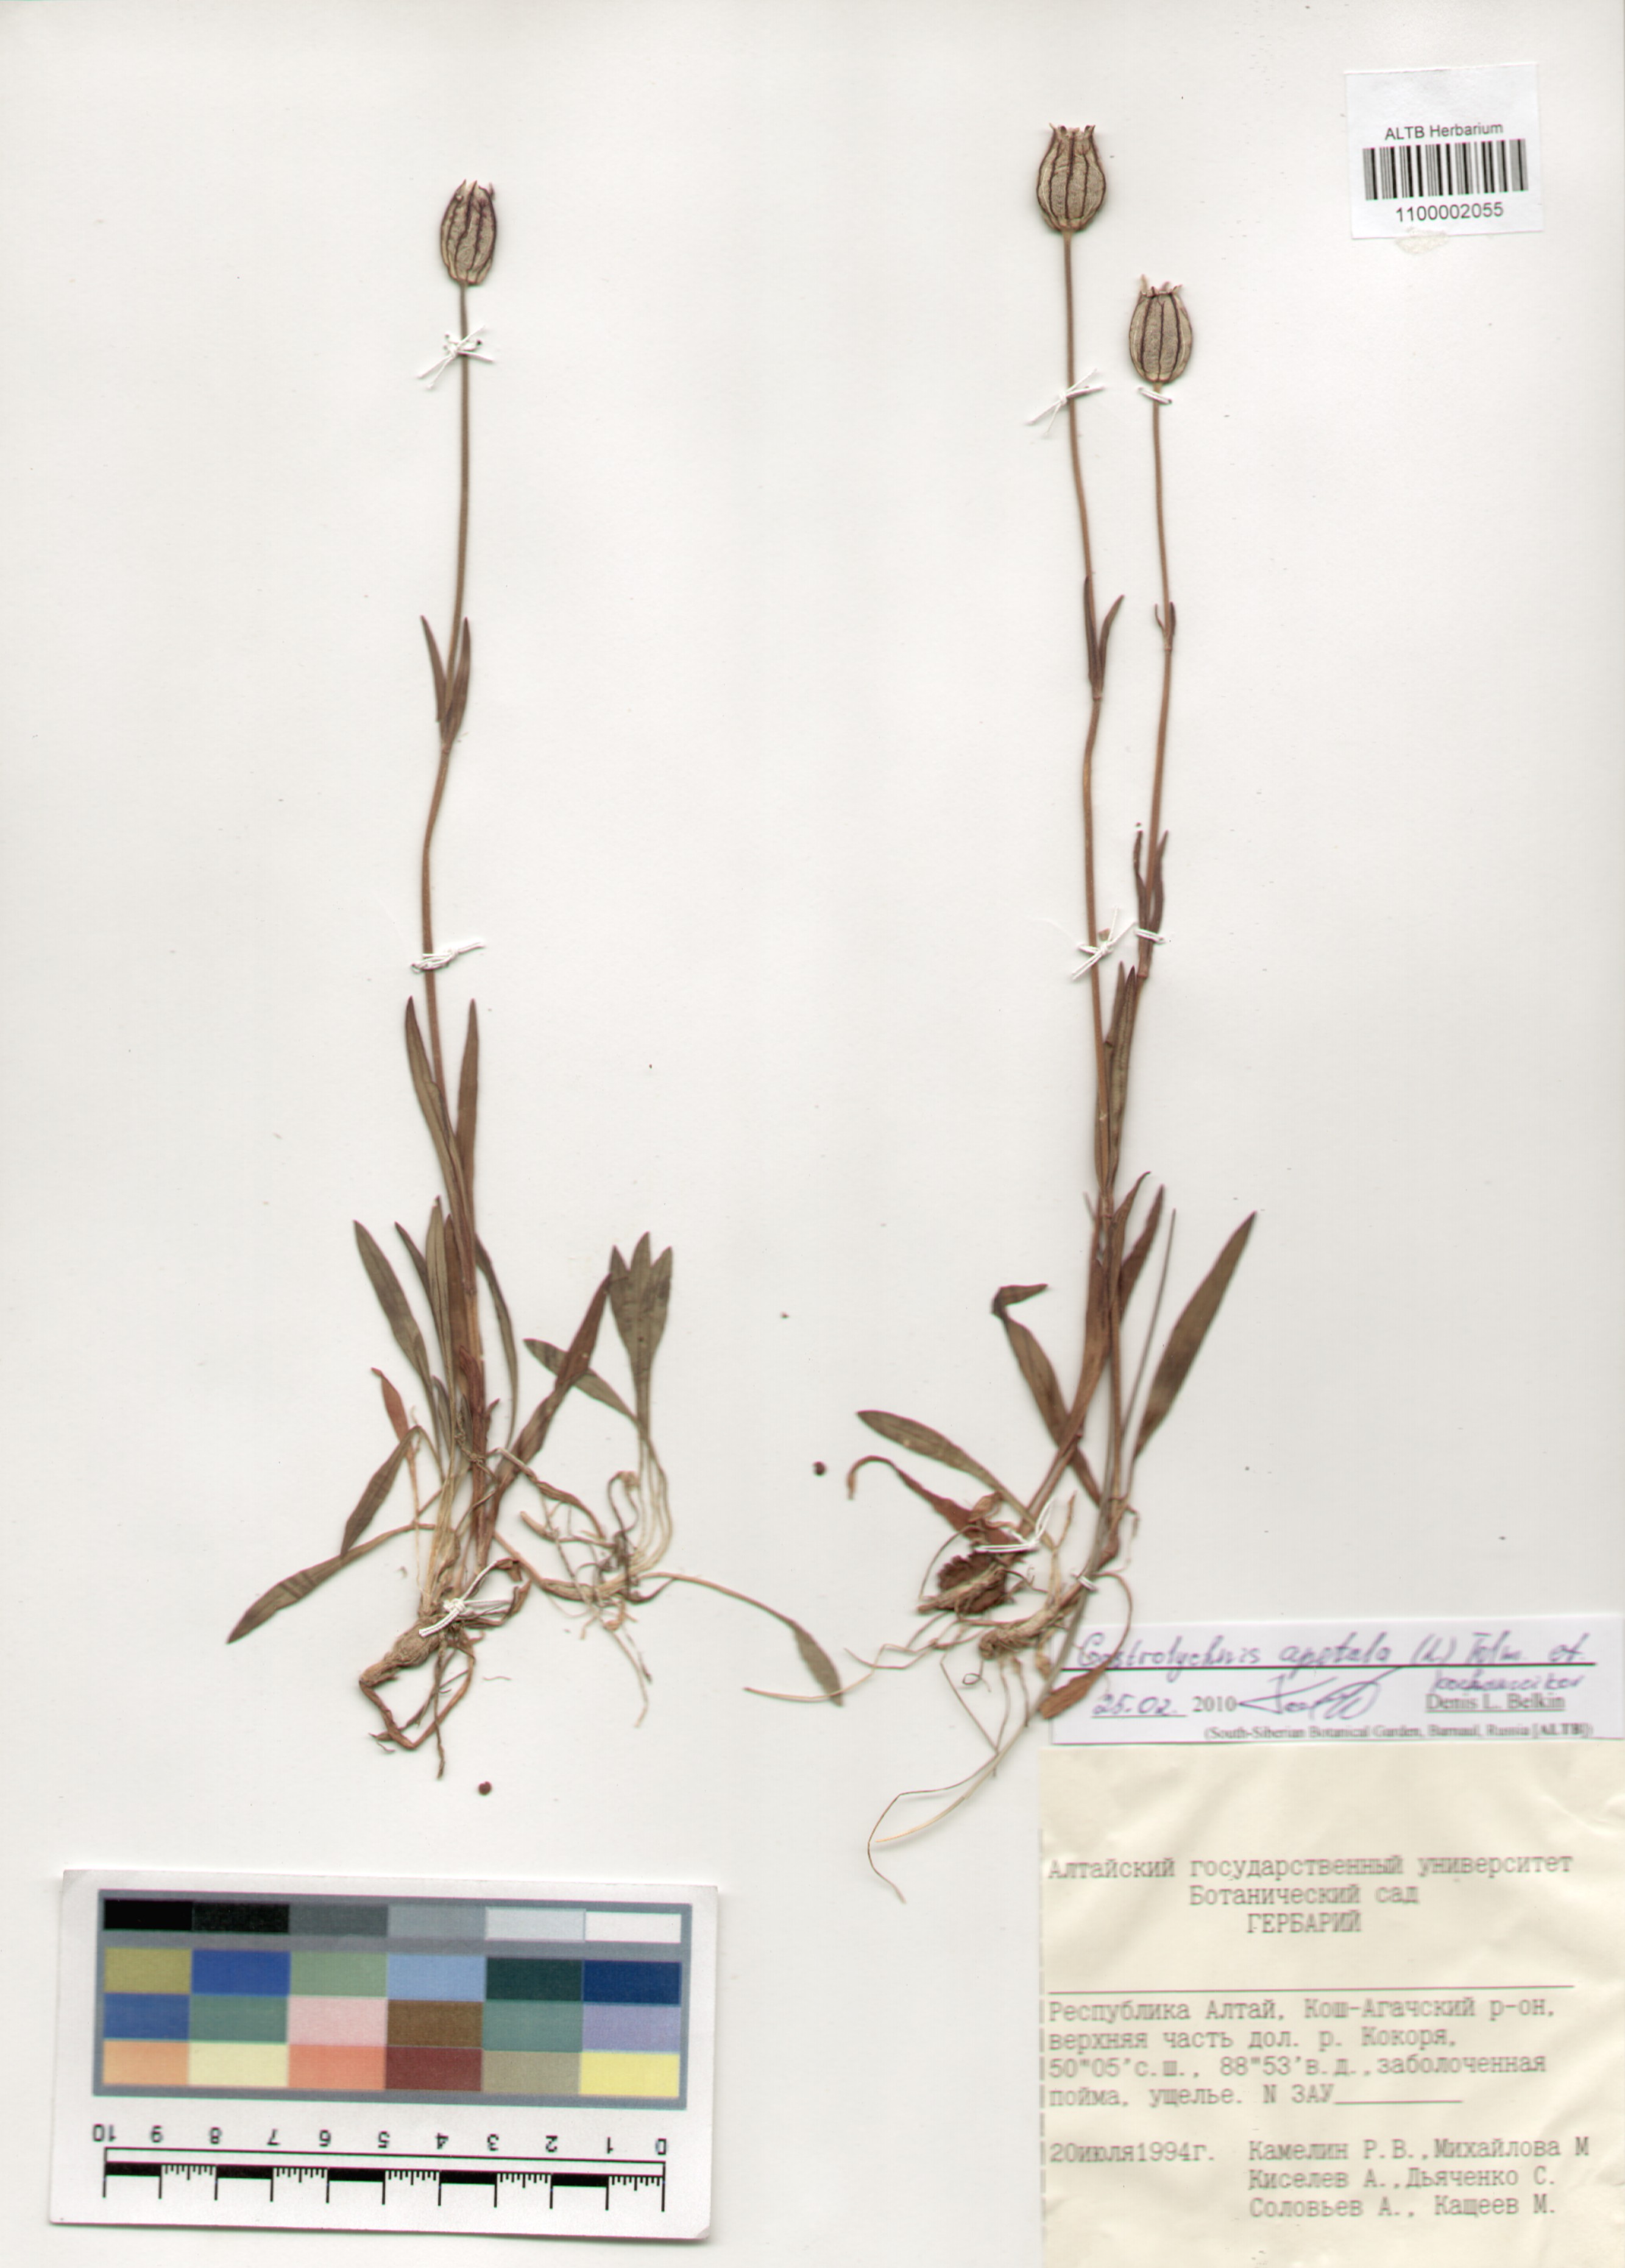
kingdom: Plantae
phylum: Tracheophyta
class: Magnoliopsida
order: Caryophyllales
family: Caryophyllaceae
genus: Silene
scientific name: Silene wahlbergella
